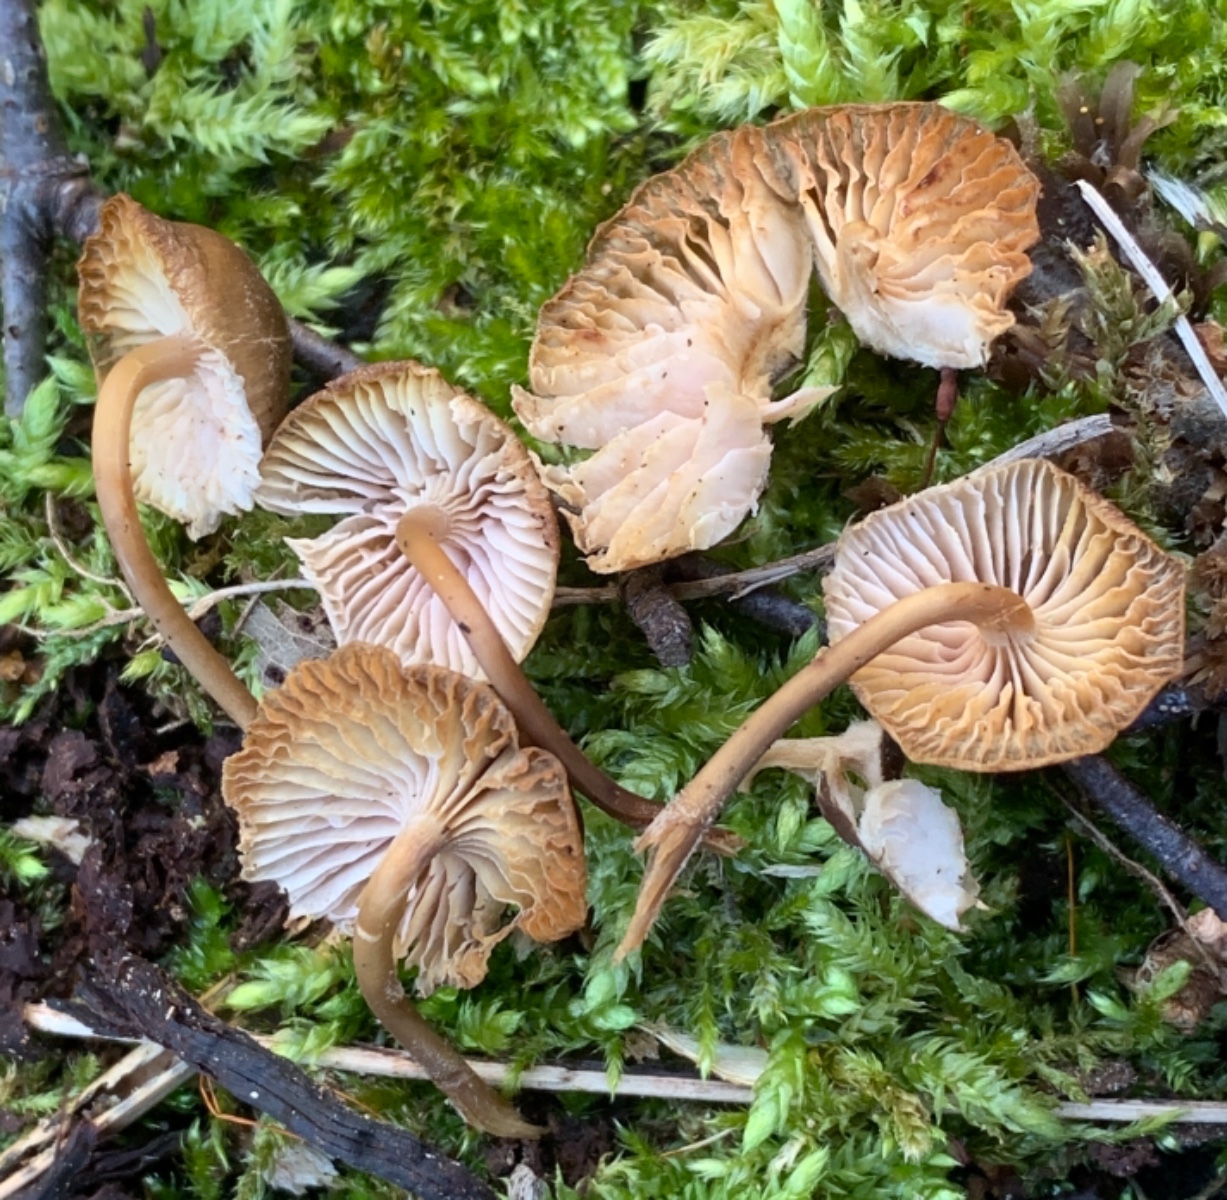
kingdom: Fungi
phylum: Basidiomycota
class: Agaricomycetes
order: Agaricales
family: Mycenaceae
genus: Mycena
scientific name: Mycena tintinnabulum
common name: vinter-huesvamp
